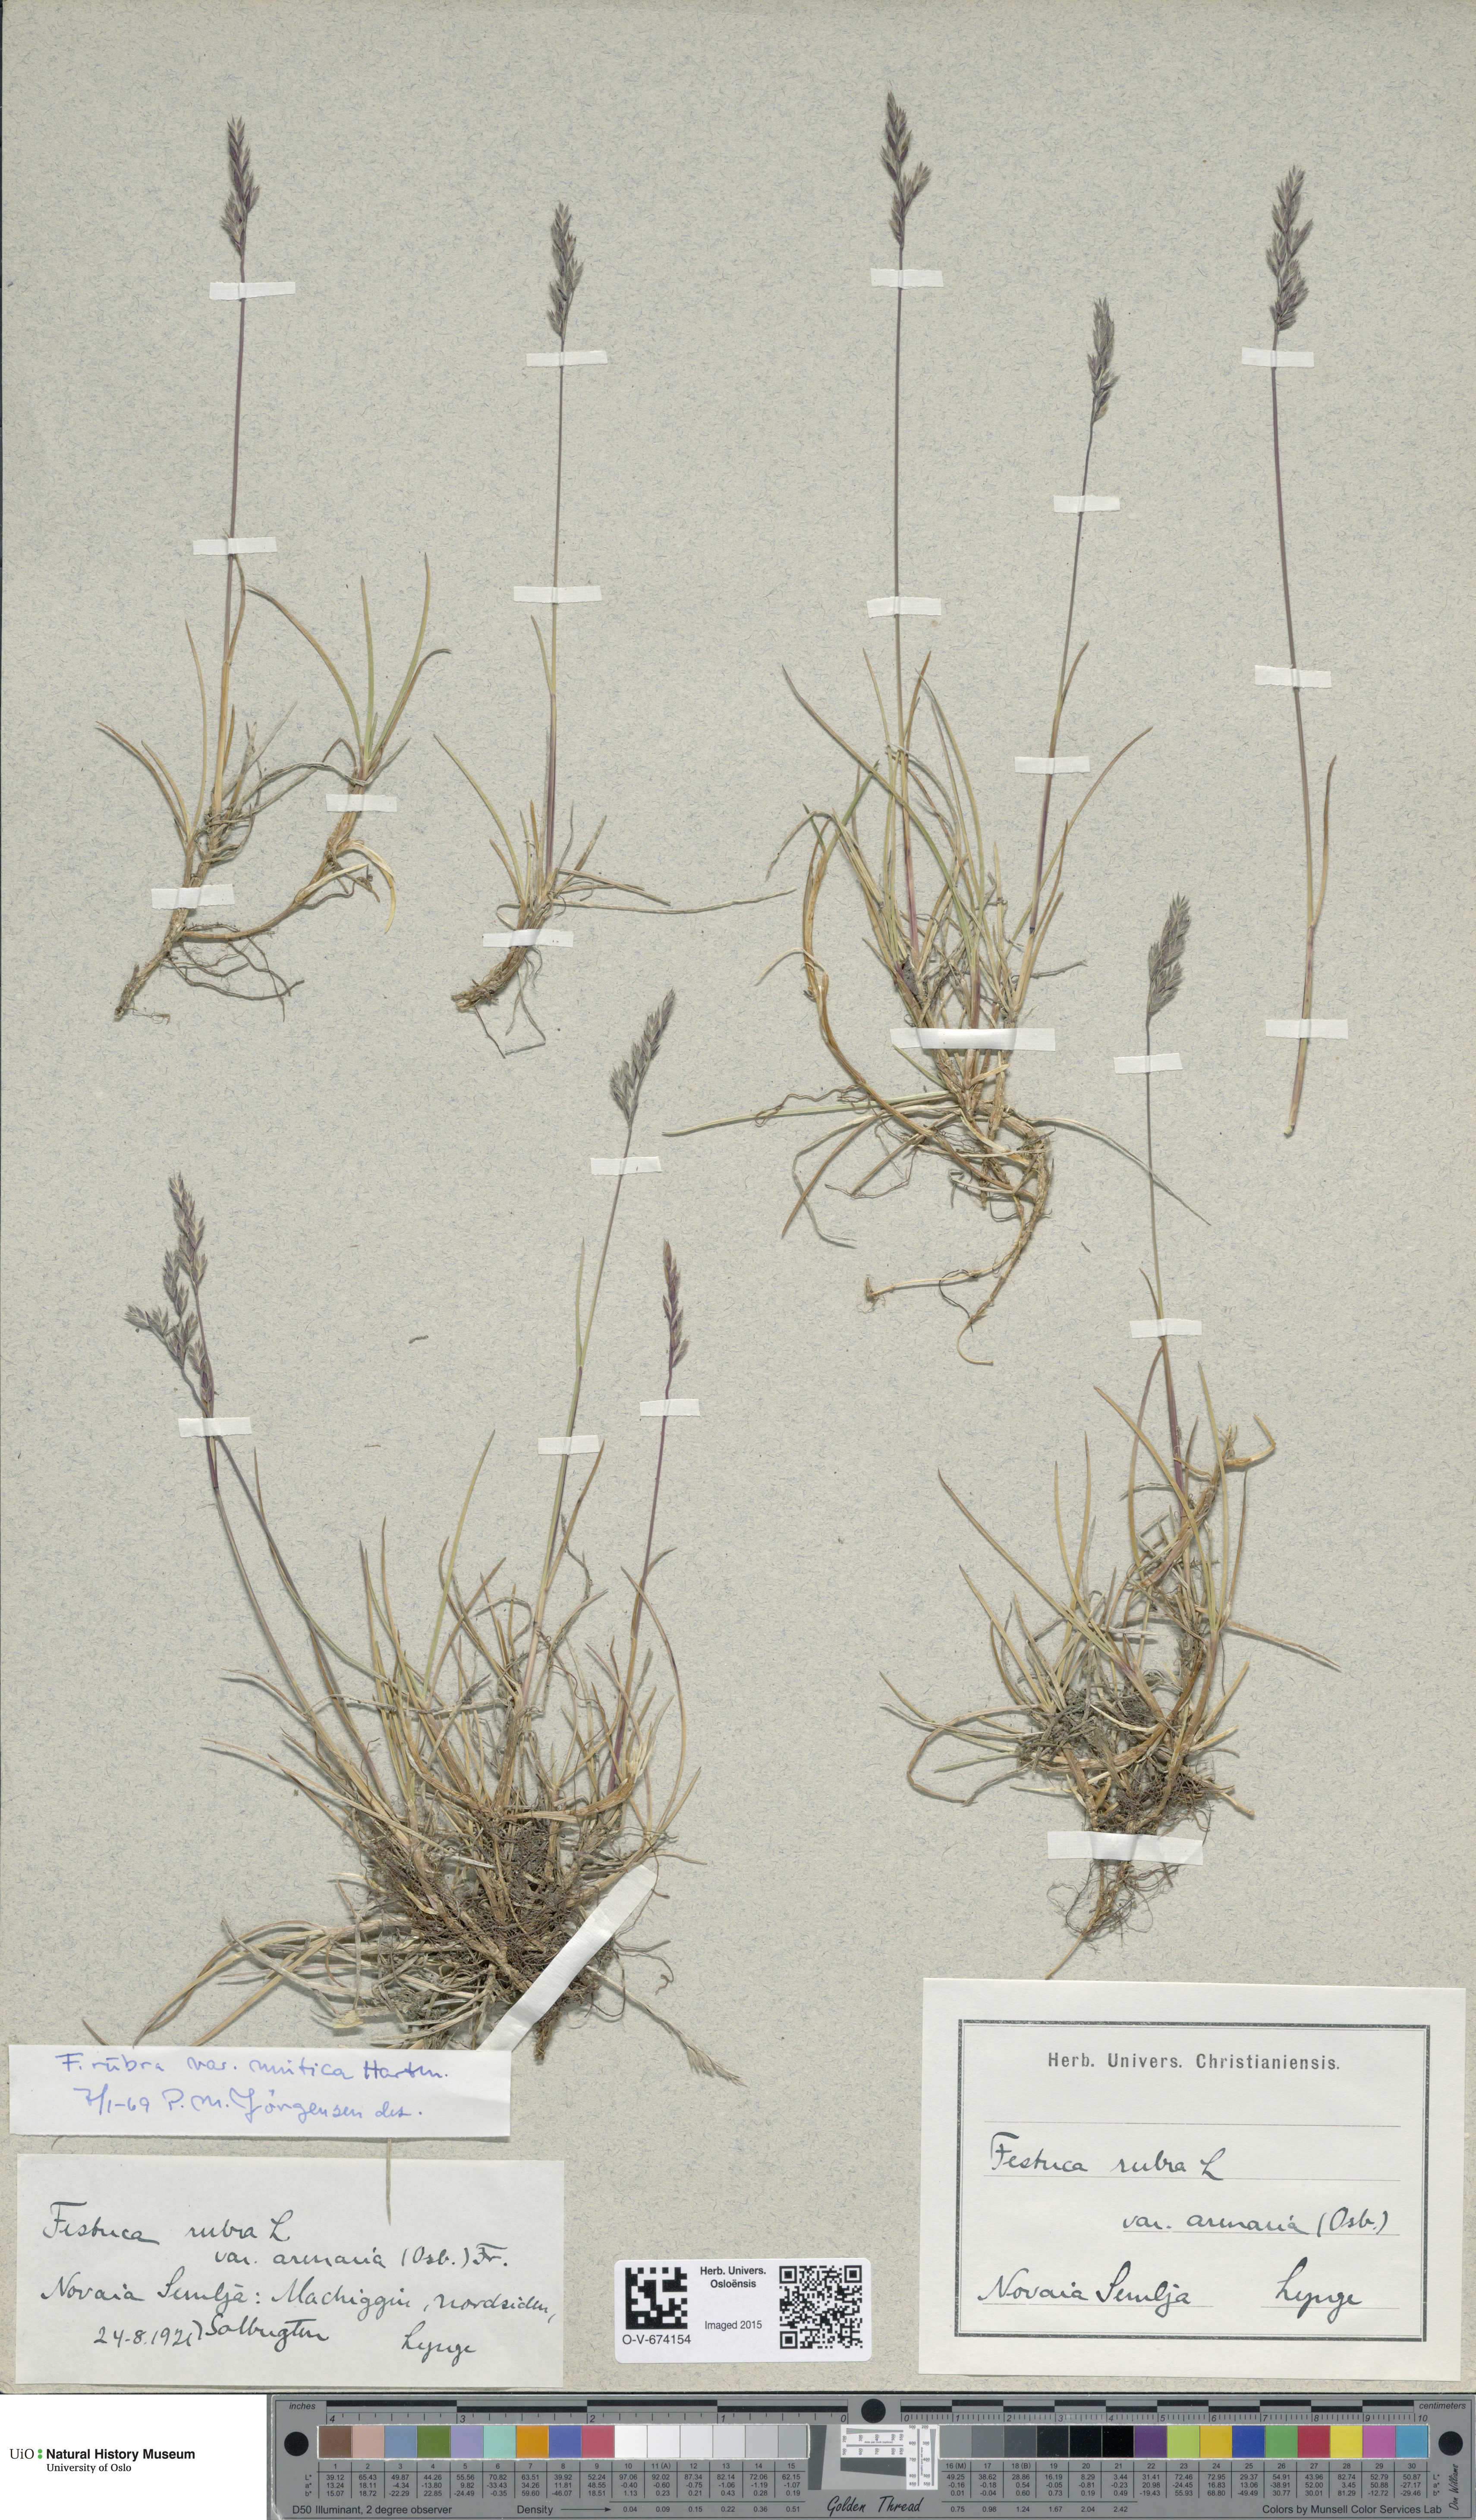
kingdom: Plantae
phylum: Tracheophyta
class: Liliopsida
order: Poales
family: Poaceae
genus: Festuca
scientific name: Festuca richardsonii
